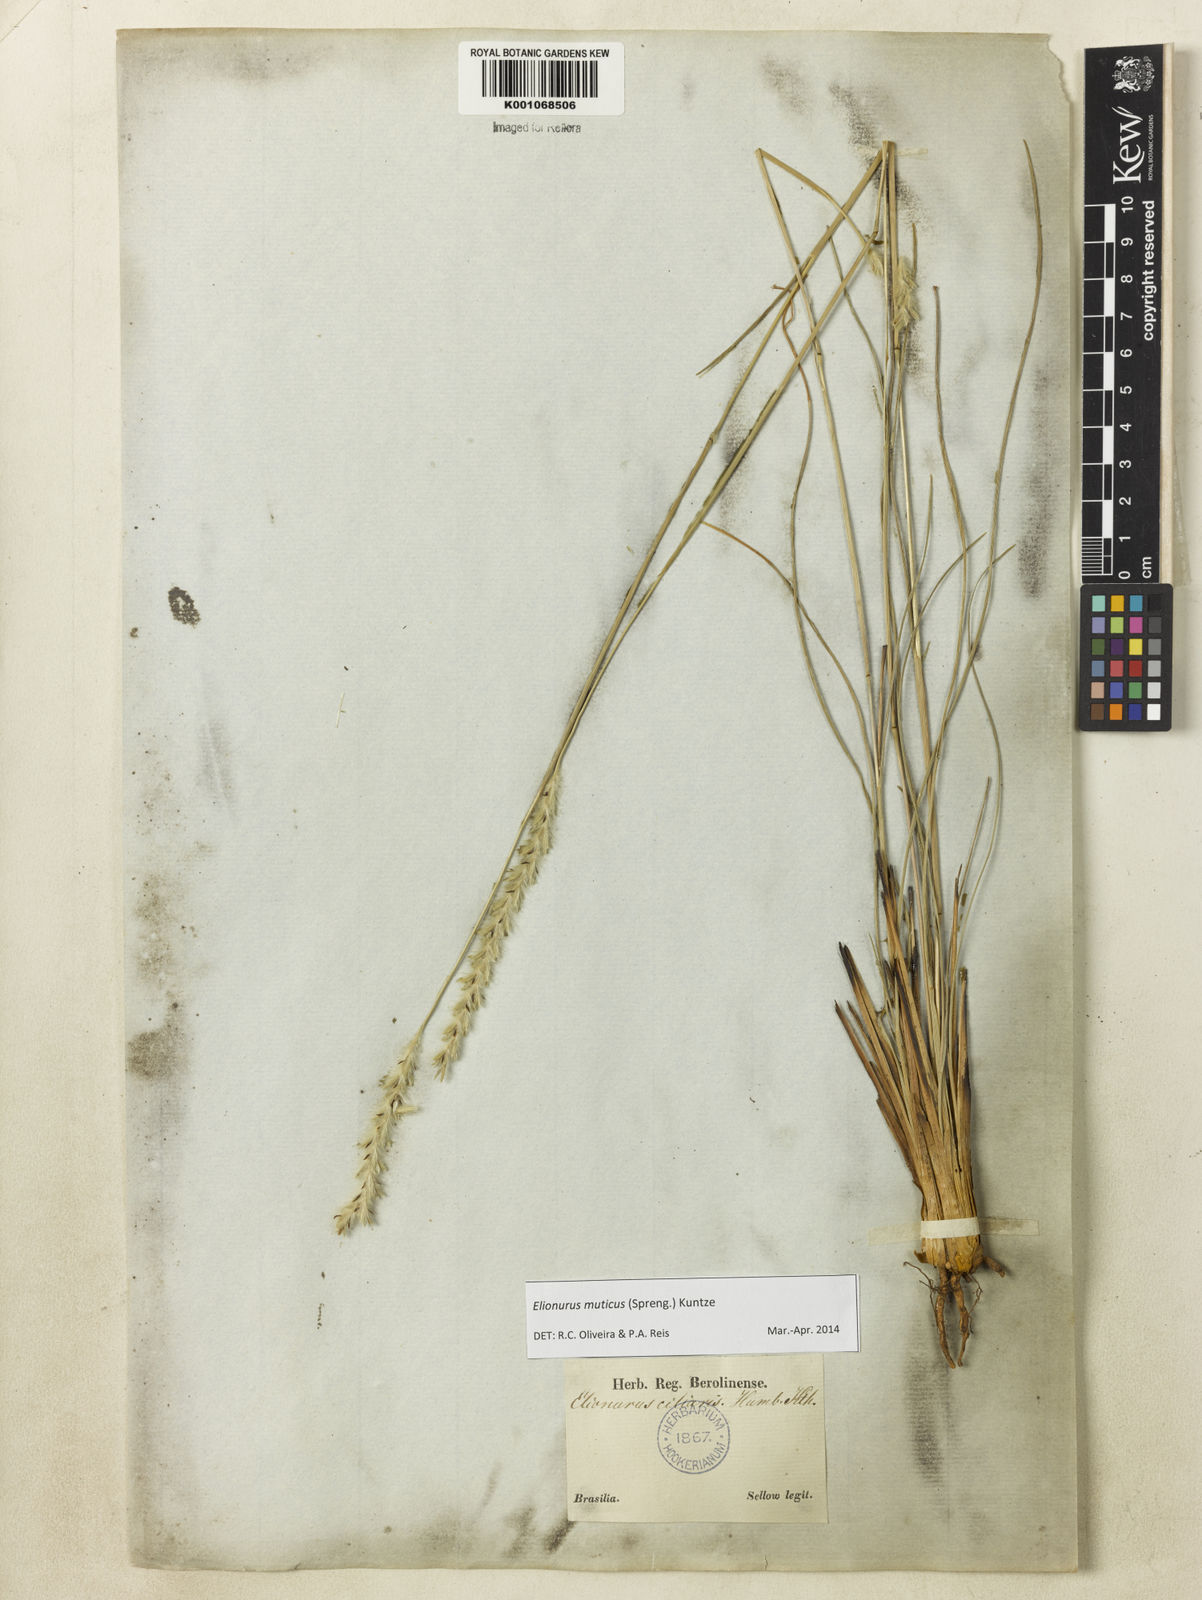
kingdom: Plantae
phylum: Tracheophyta
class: Liliopsida
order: Poales
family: Poaceae
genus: Elionurus
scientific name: Elionurus muticus
